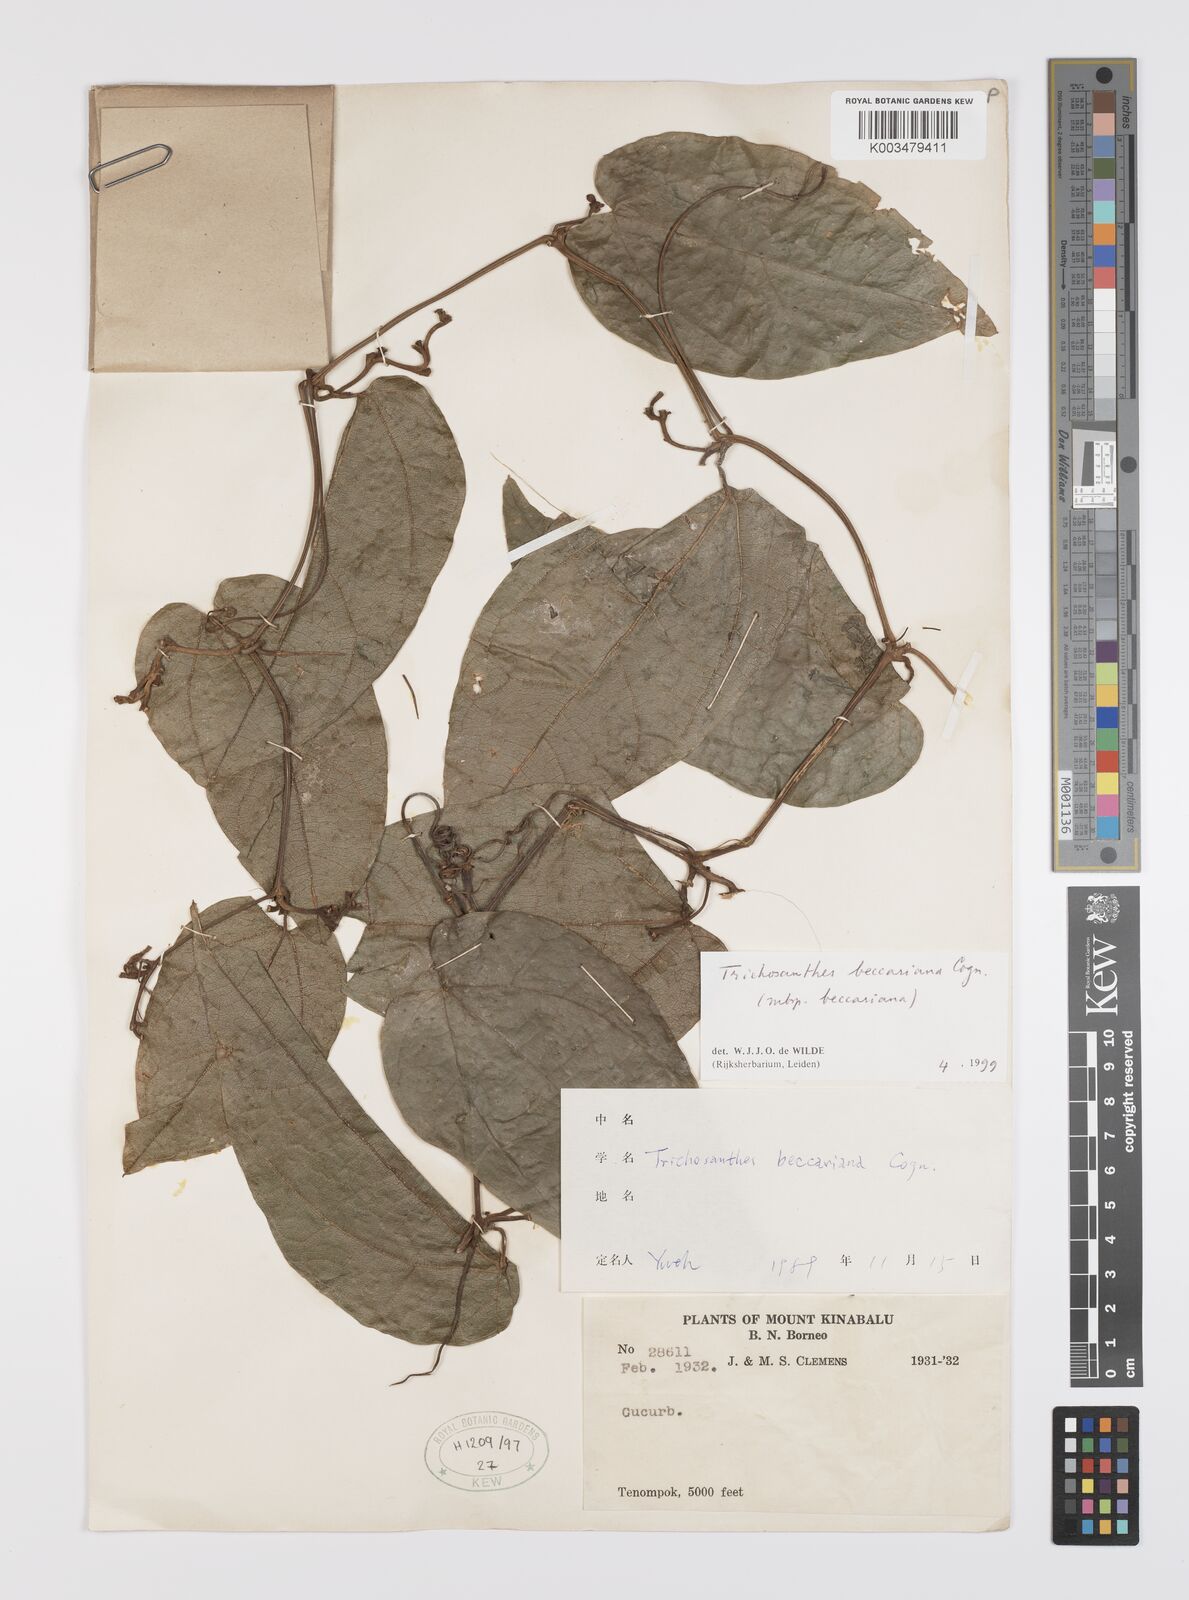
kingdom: Plantae
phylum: Tracheophyta
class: Magnoliopsida
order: Cucurbitales
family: Cucurbitaceae
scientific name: Cucurbitaceae
